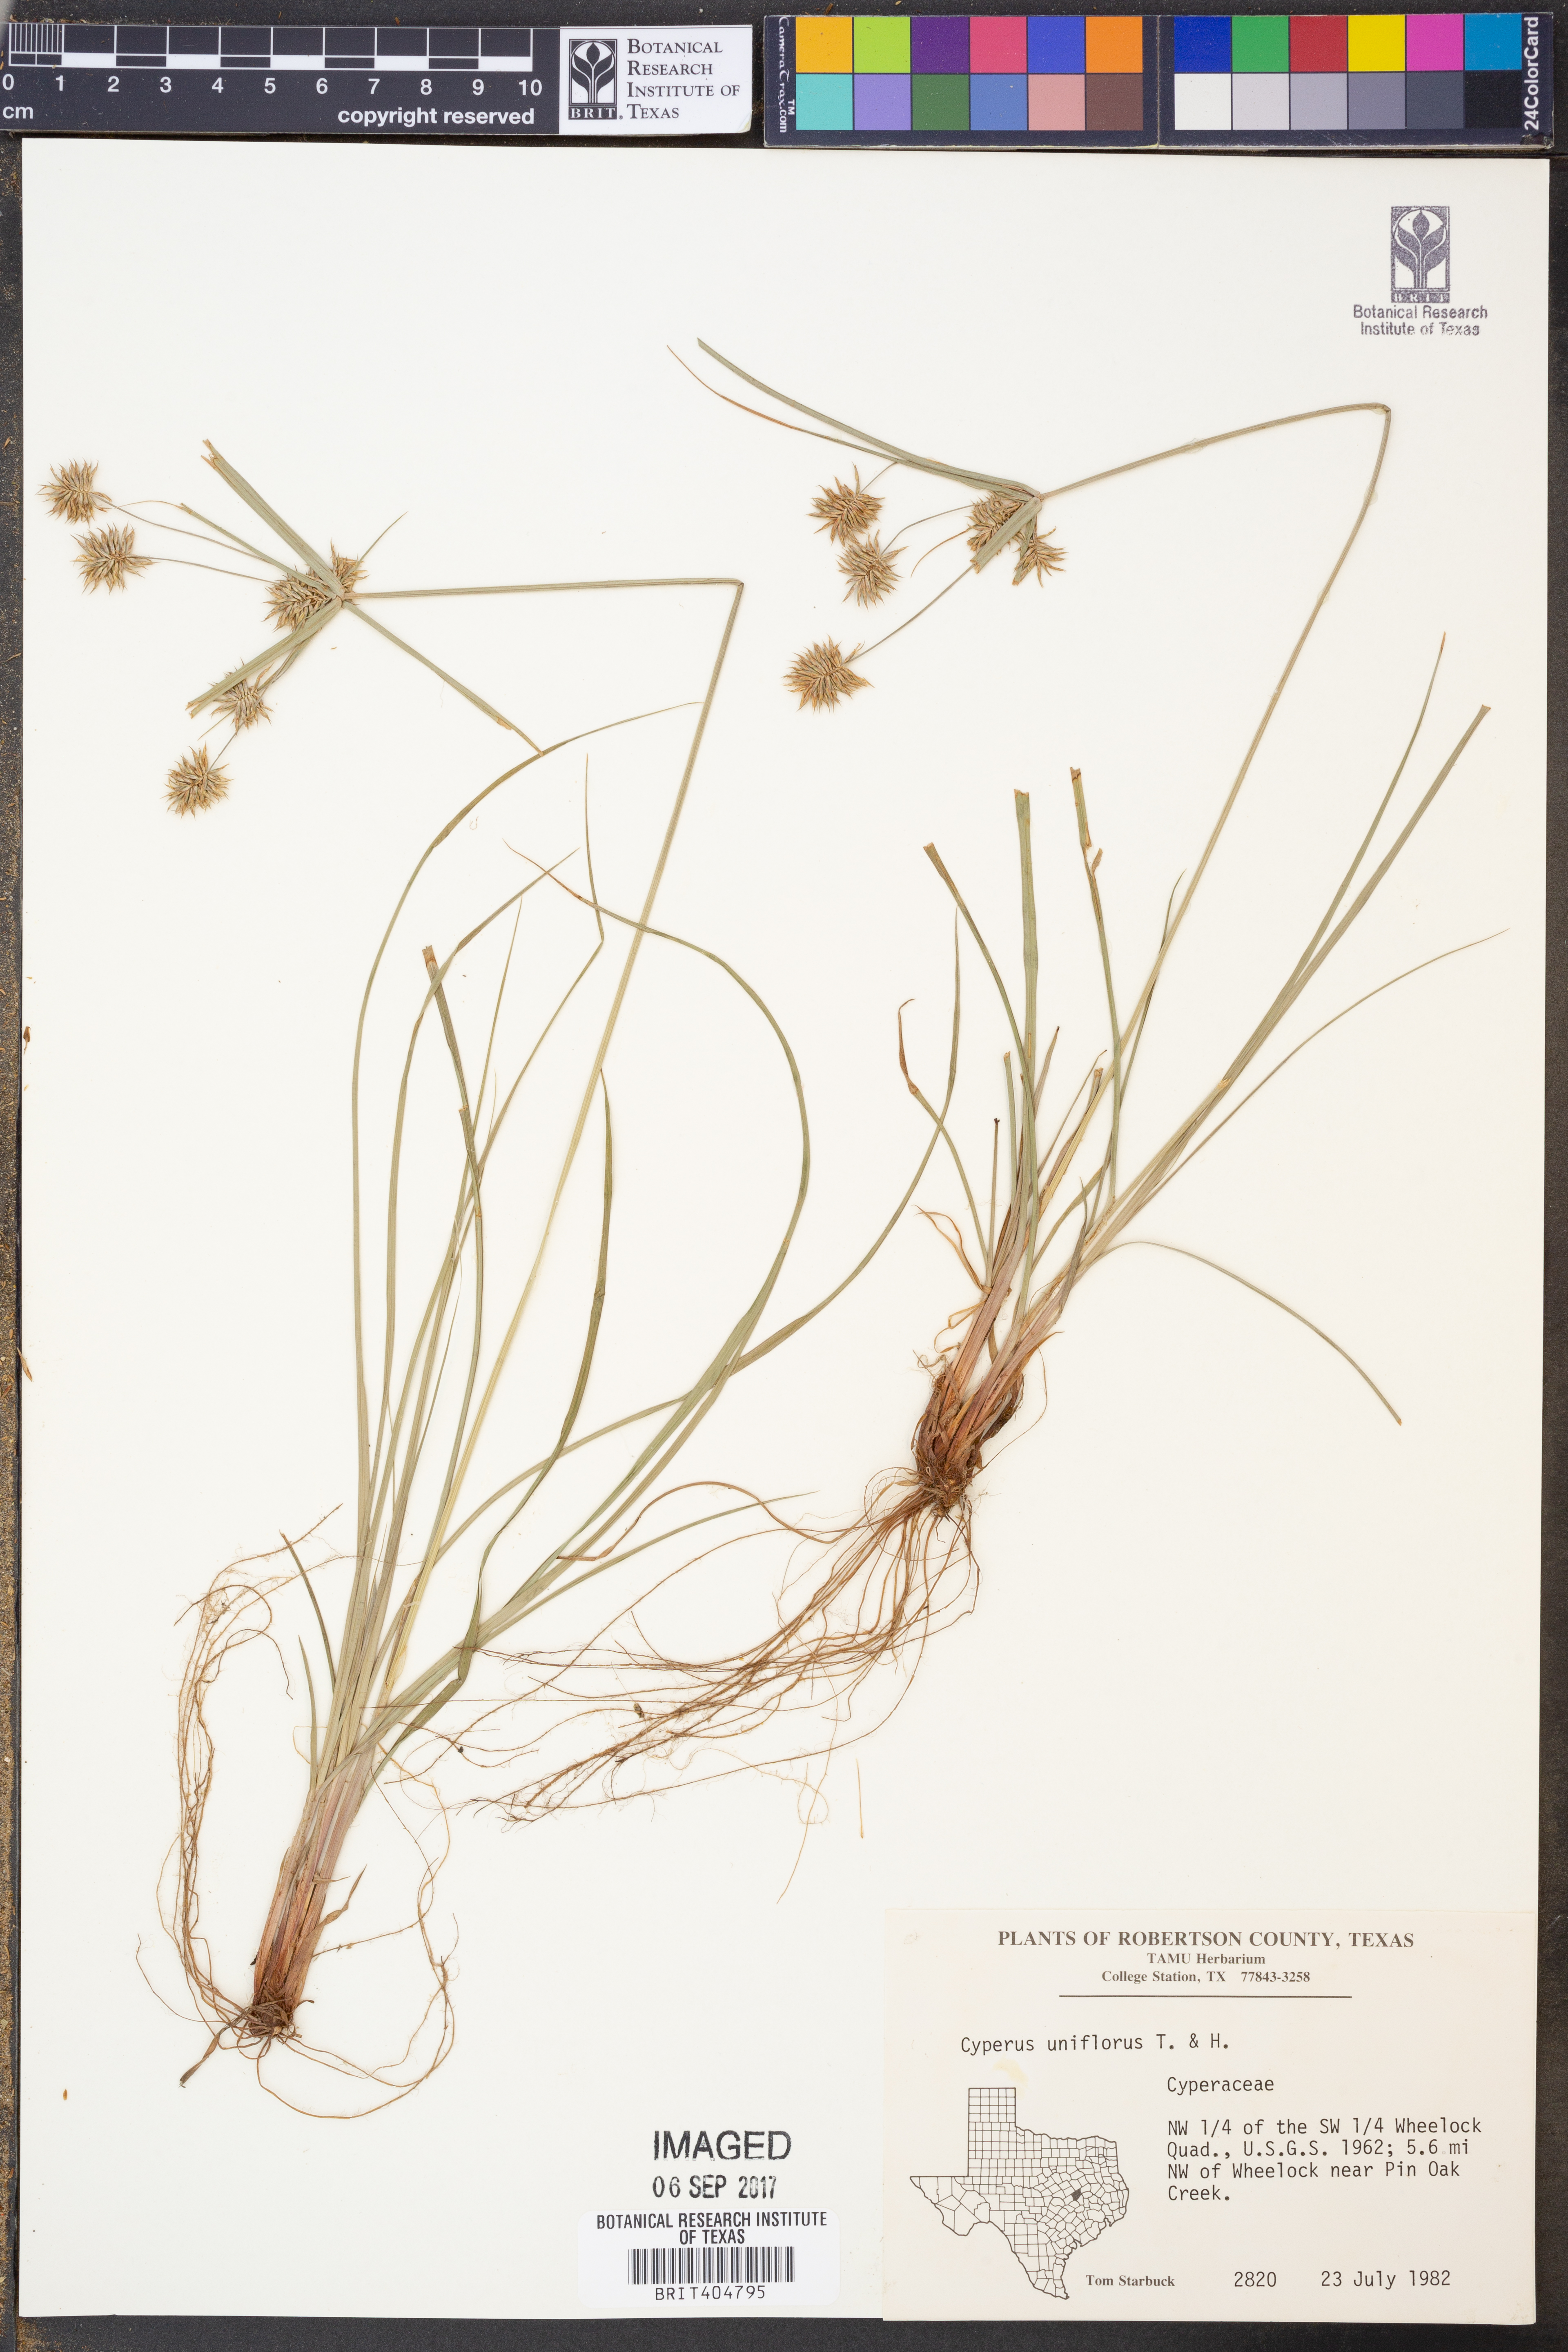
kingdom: Plantae
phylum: Tracheophyta
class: Liliopsida
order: Poales
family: Cyperaceae
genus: Cyperus
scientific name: Cyperus retroflexus
